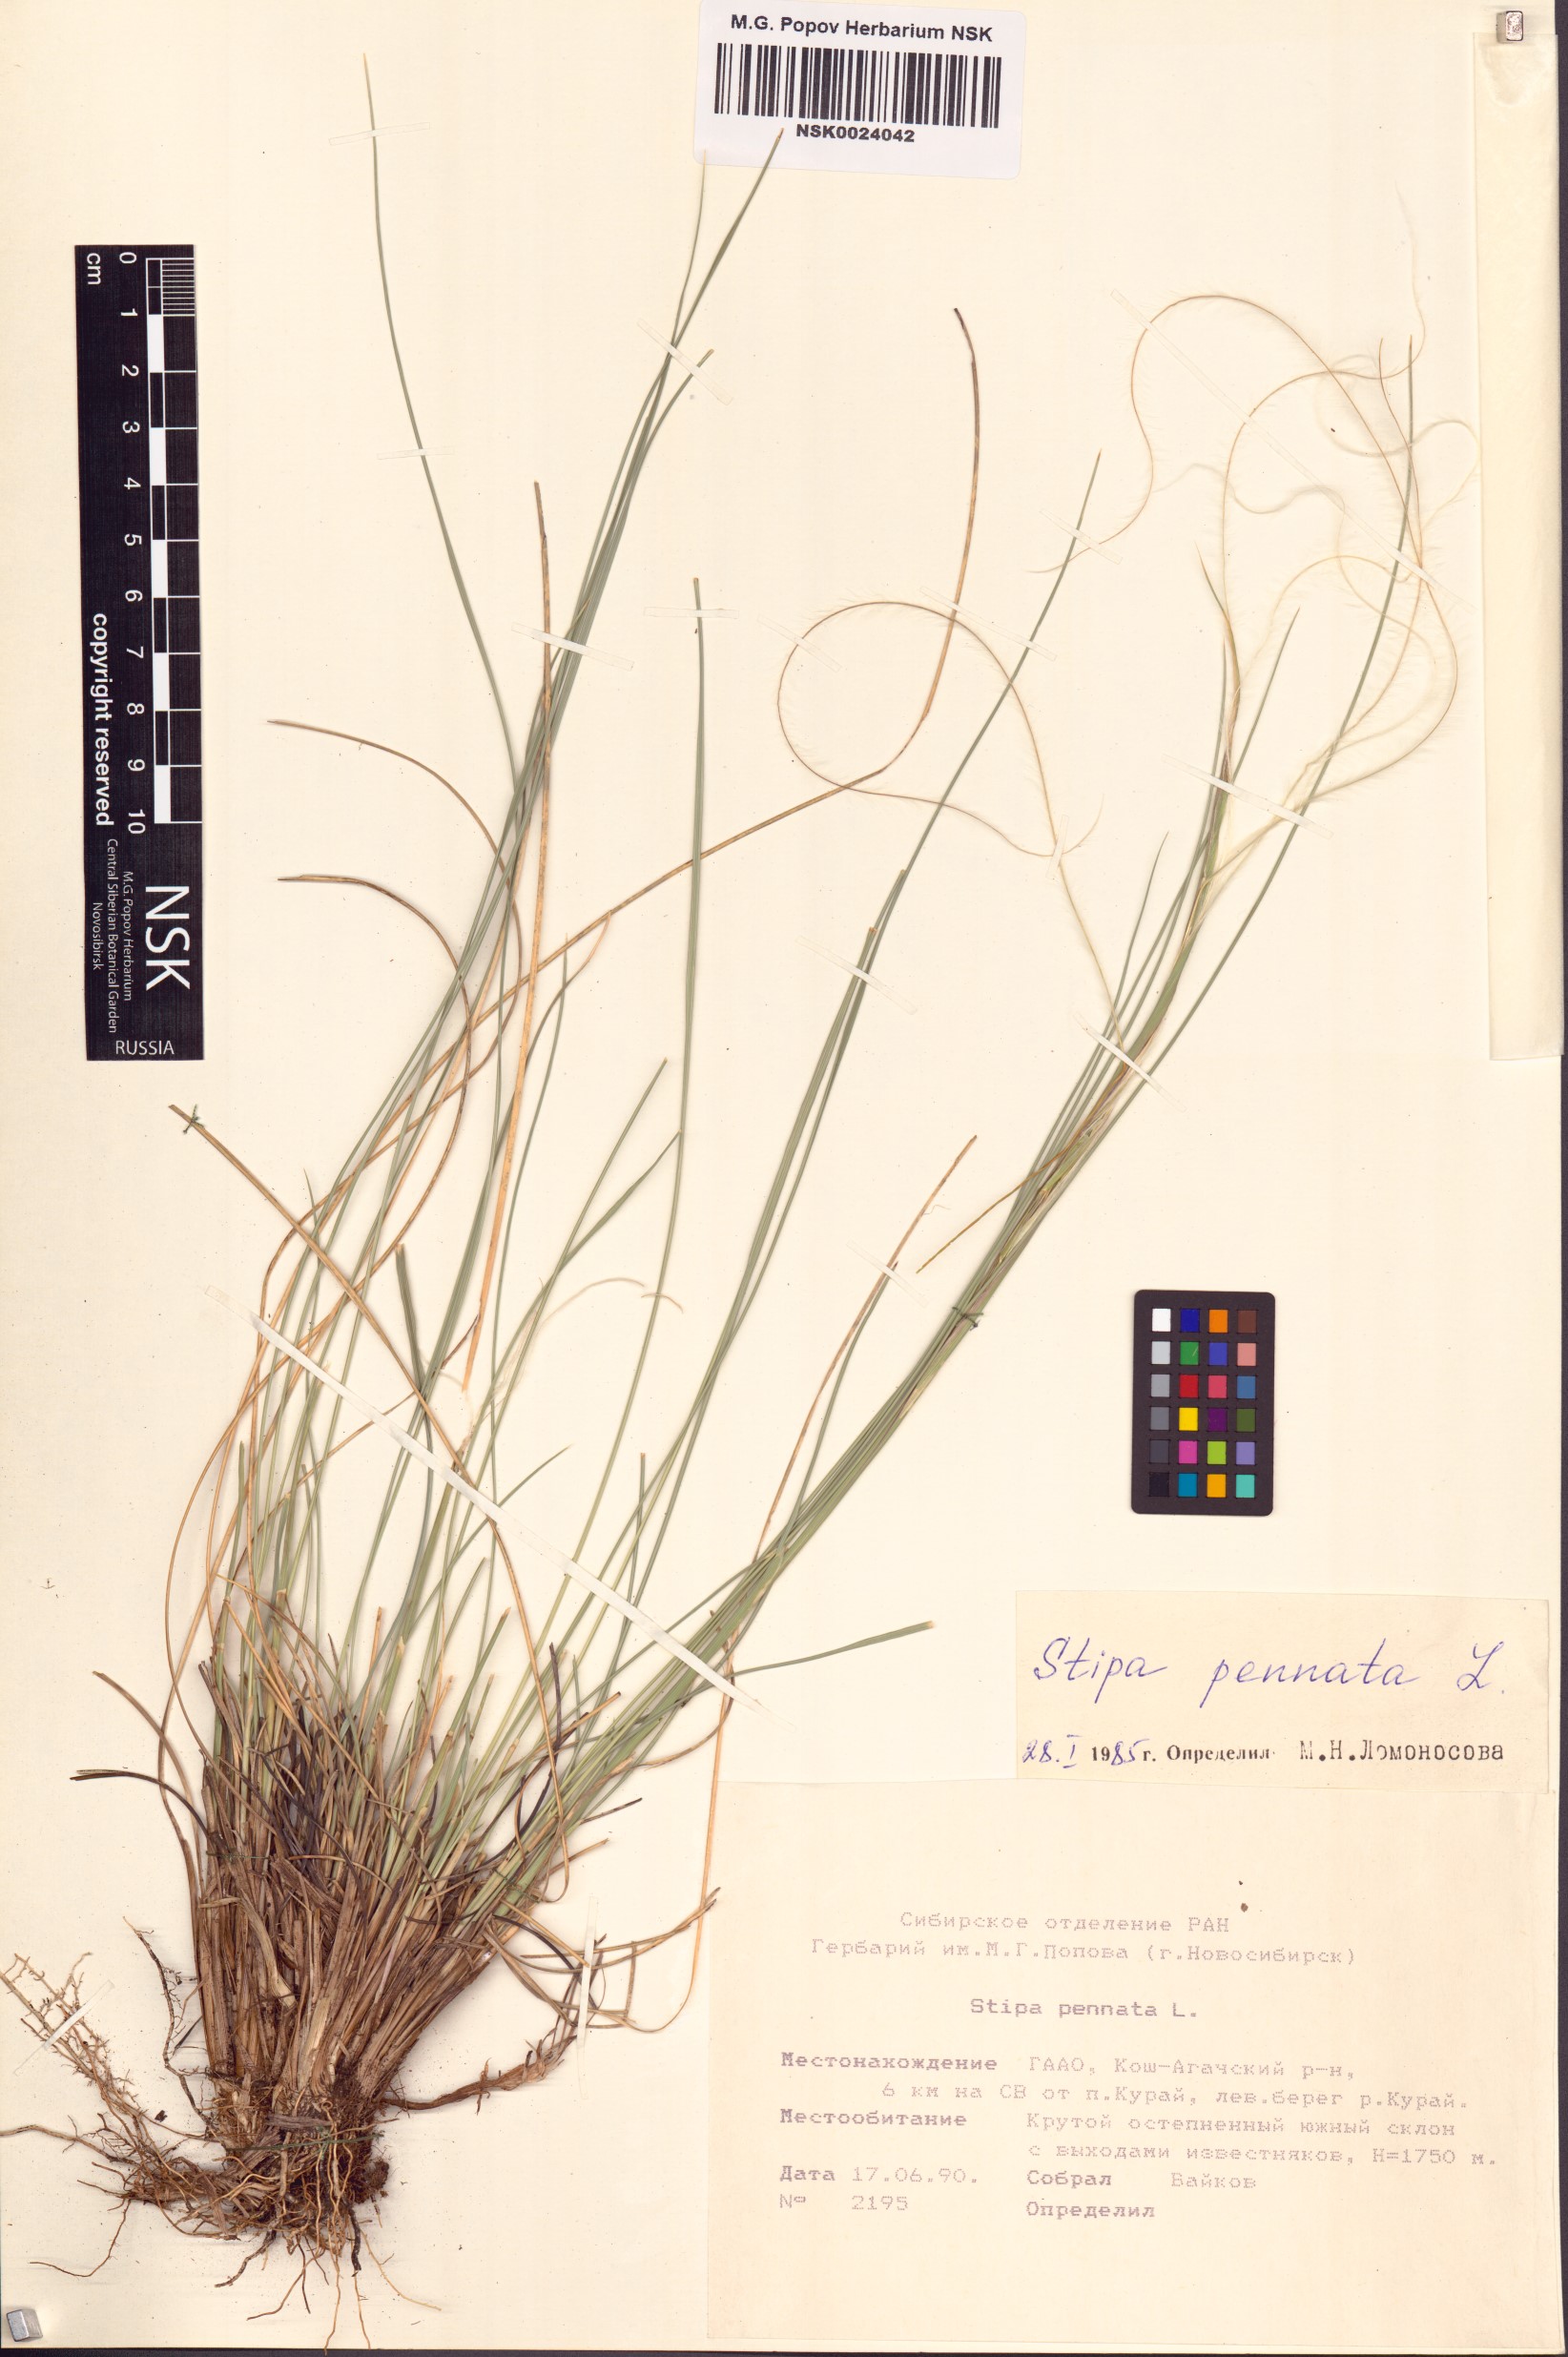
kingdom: Plantae
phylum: Tracheophyta
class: Liliopsida
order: Poales
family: Poaceae
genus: Stipa
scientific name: Stipa pennata
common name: European feather grass
